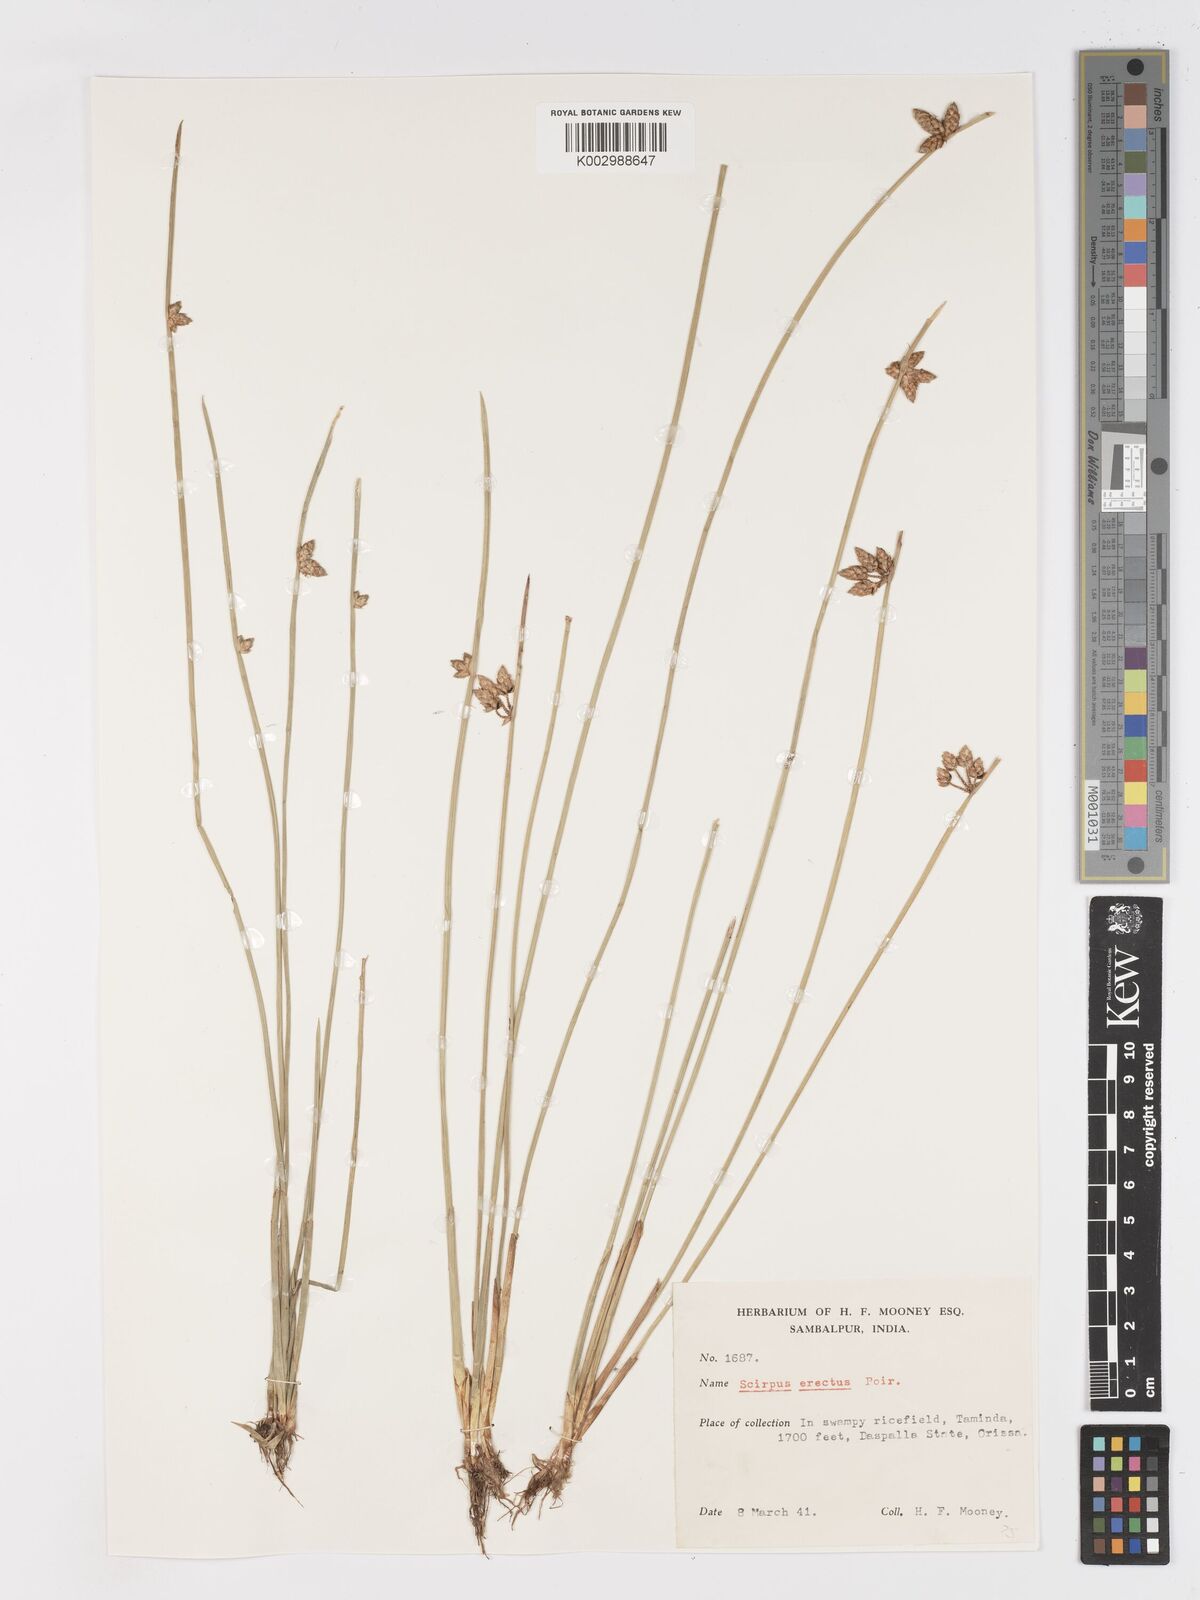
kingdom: Plantae
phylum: Tracheophyta
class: Liliopsida
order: Poales
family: Cyperaceae
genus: Schoenoplectiella
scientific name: Schoenoplectiella juncoides
